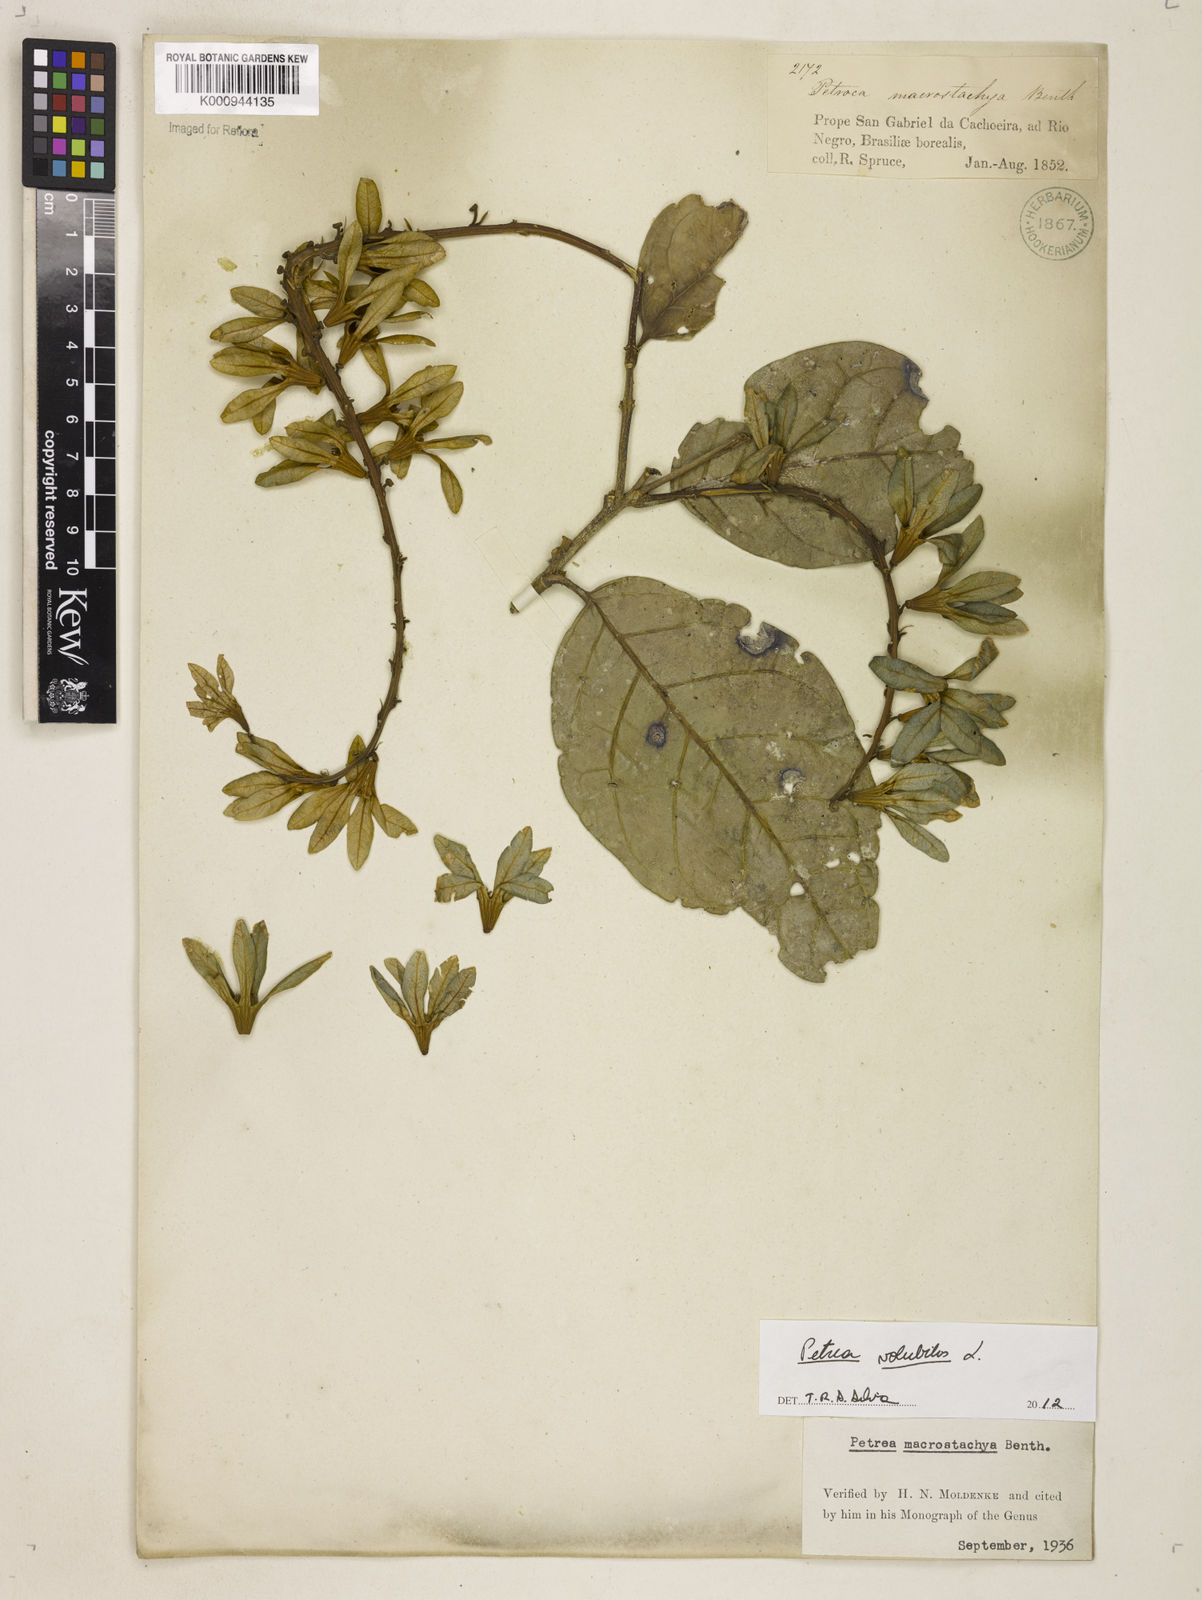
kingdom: Plantae
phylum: Tracheophyta
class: Magnoliopsida
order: Lamiales
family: Verbenaceae
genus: Petrea
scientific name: Petrea volubilis
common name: Queen's-wreath
